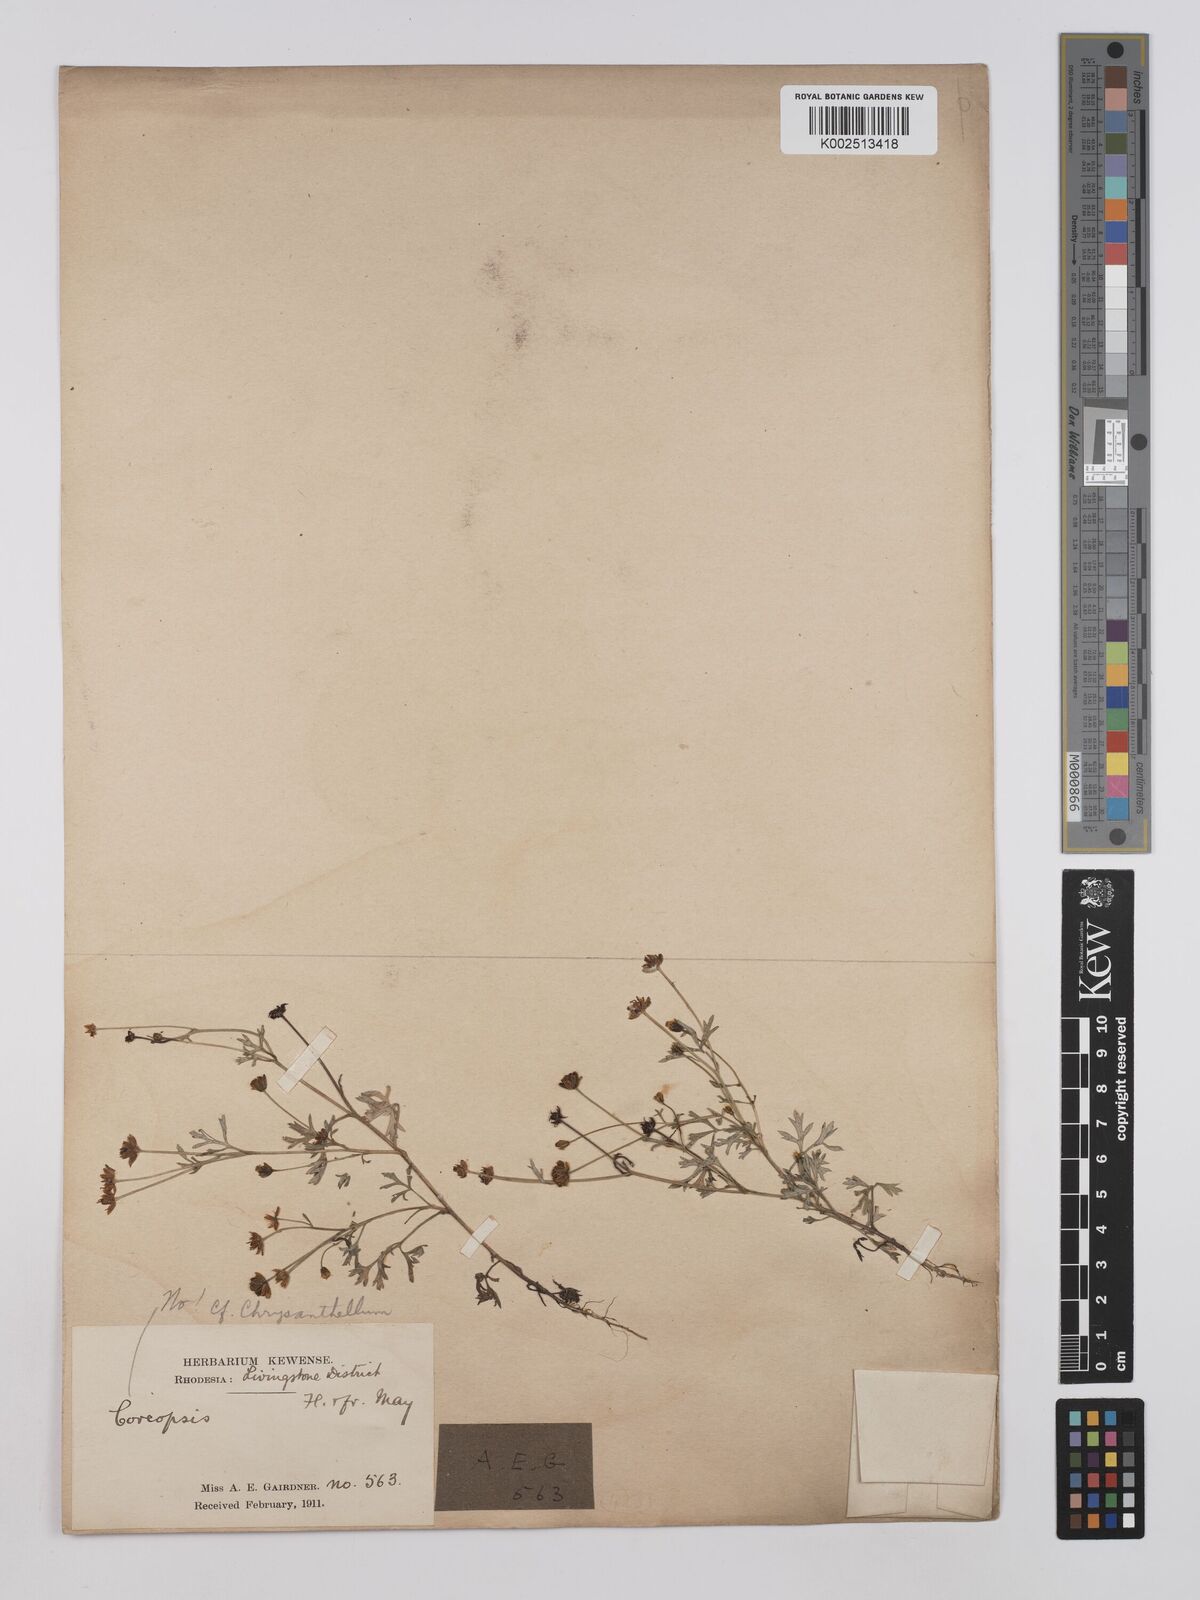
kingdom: Plantae
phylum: Tracheophyta
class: Magnoliopsida
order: Asterales
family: Asteraceae
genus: Chrysanthellum
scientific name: Chrysanthellum indicum
